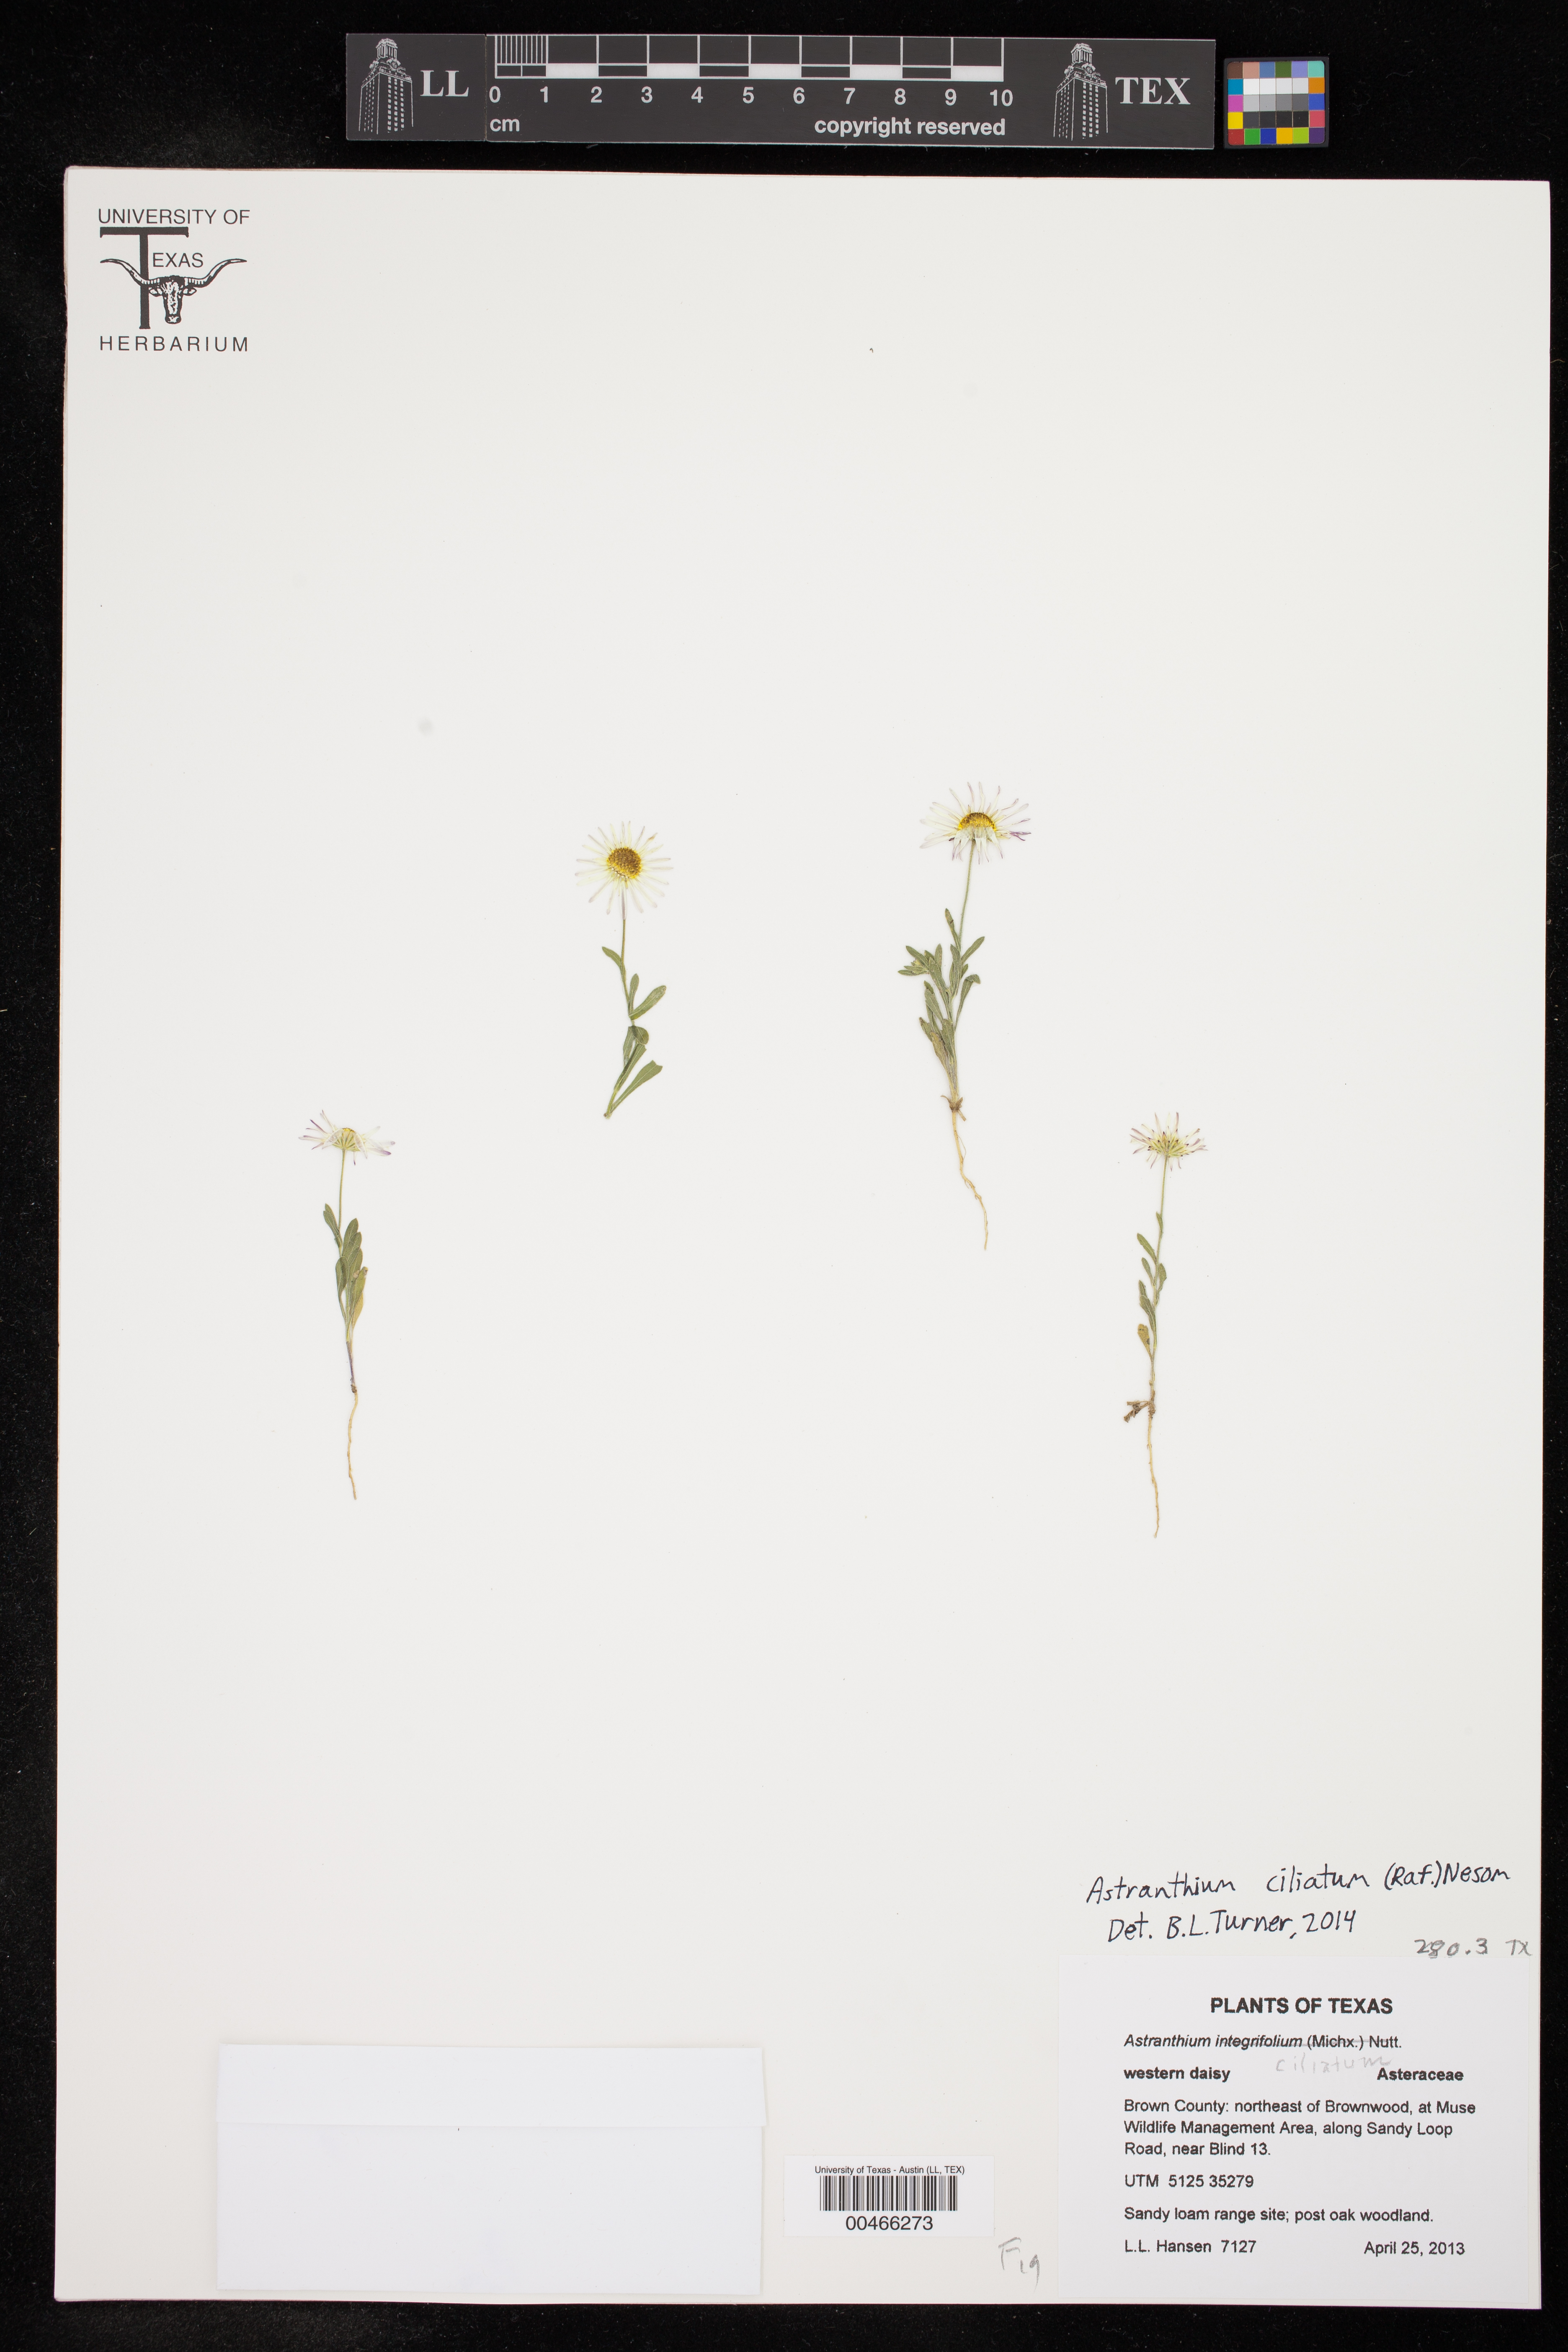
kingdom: Plantae
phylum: Tracheophyta
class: Magnoliopsida
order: Asterales
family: Asteraceae
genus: Astranthium
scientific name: Astranthium ciliatum
